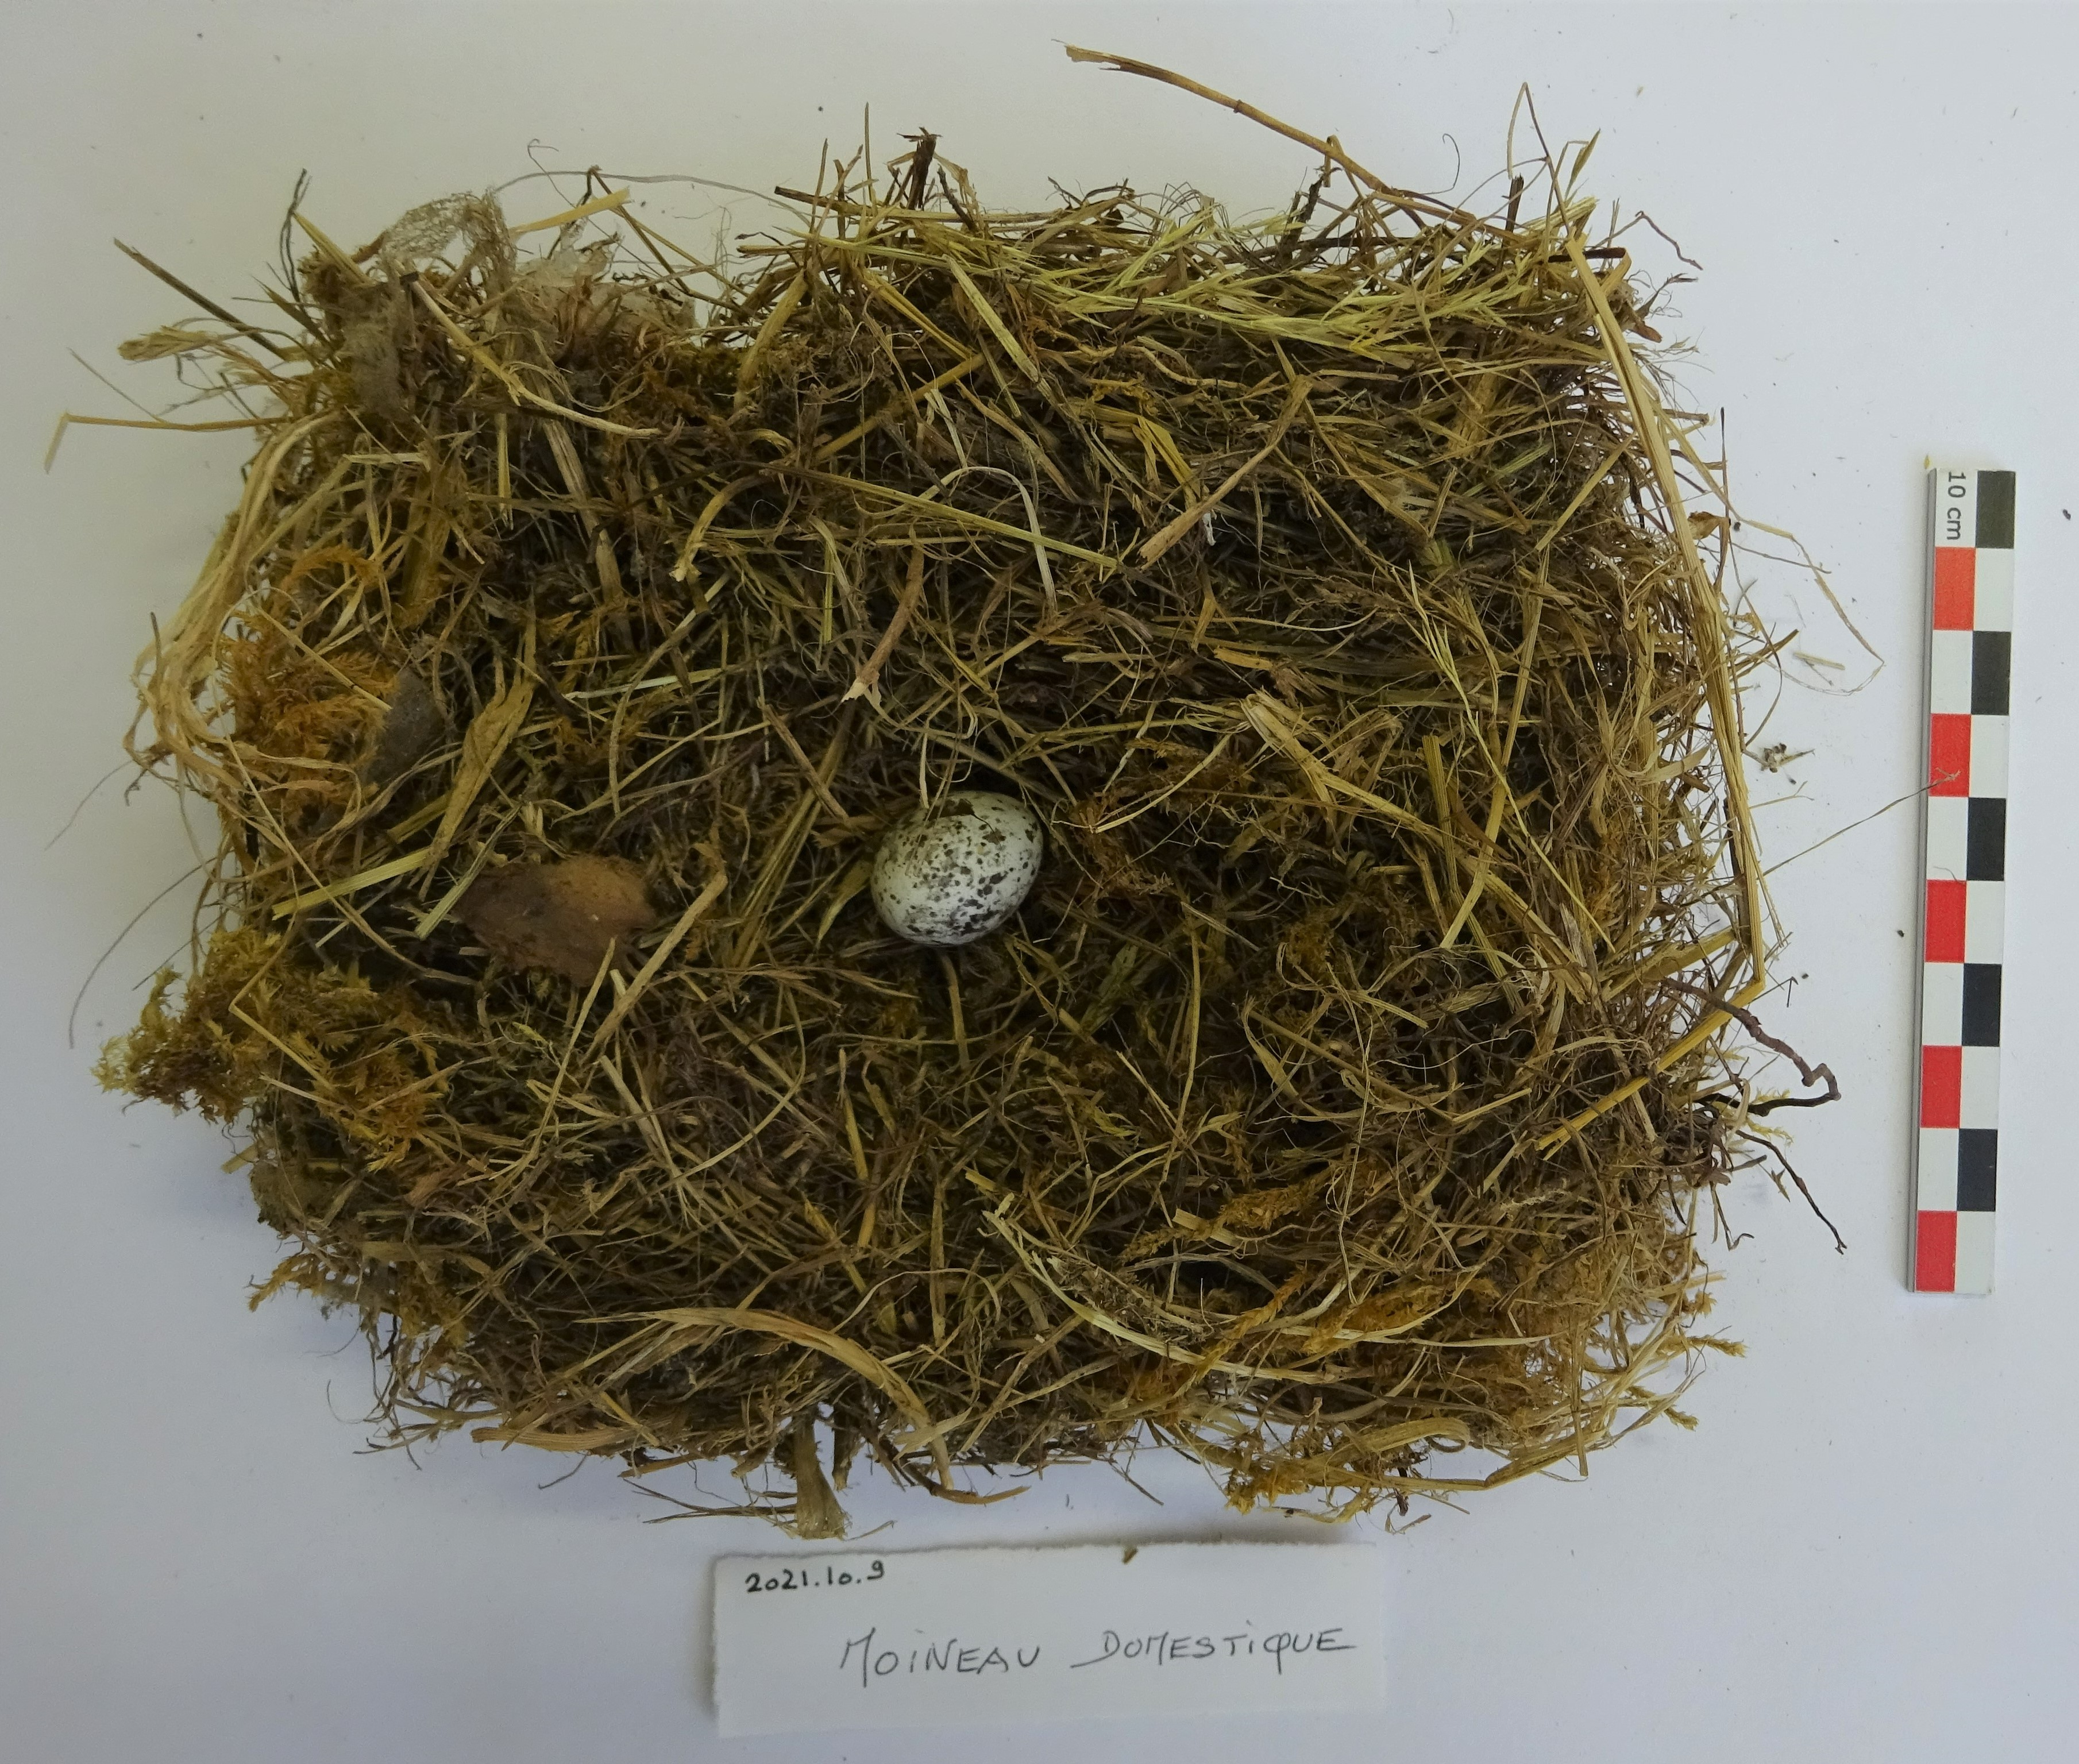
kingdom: Animalia
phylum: Chordata
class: Aves
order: Passeriformes
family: Passeridae
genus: Passer
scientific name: Passer domesticus
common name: House sparrow
